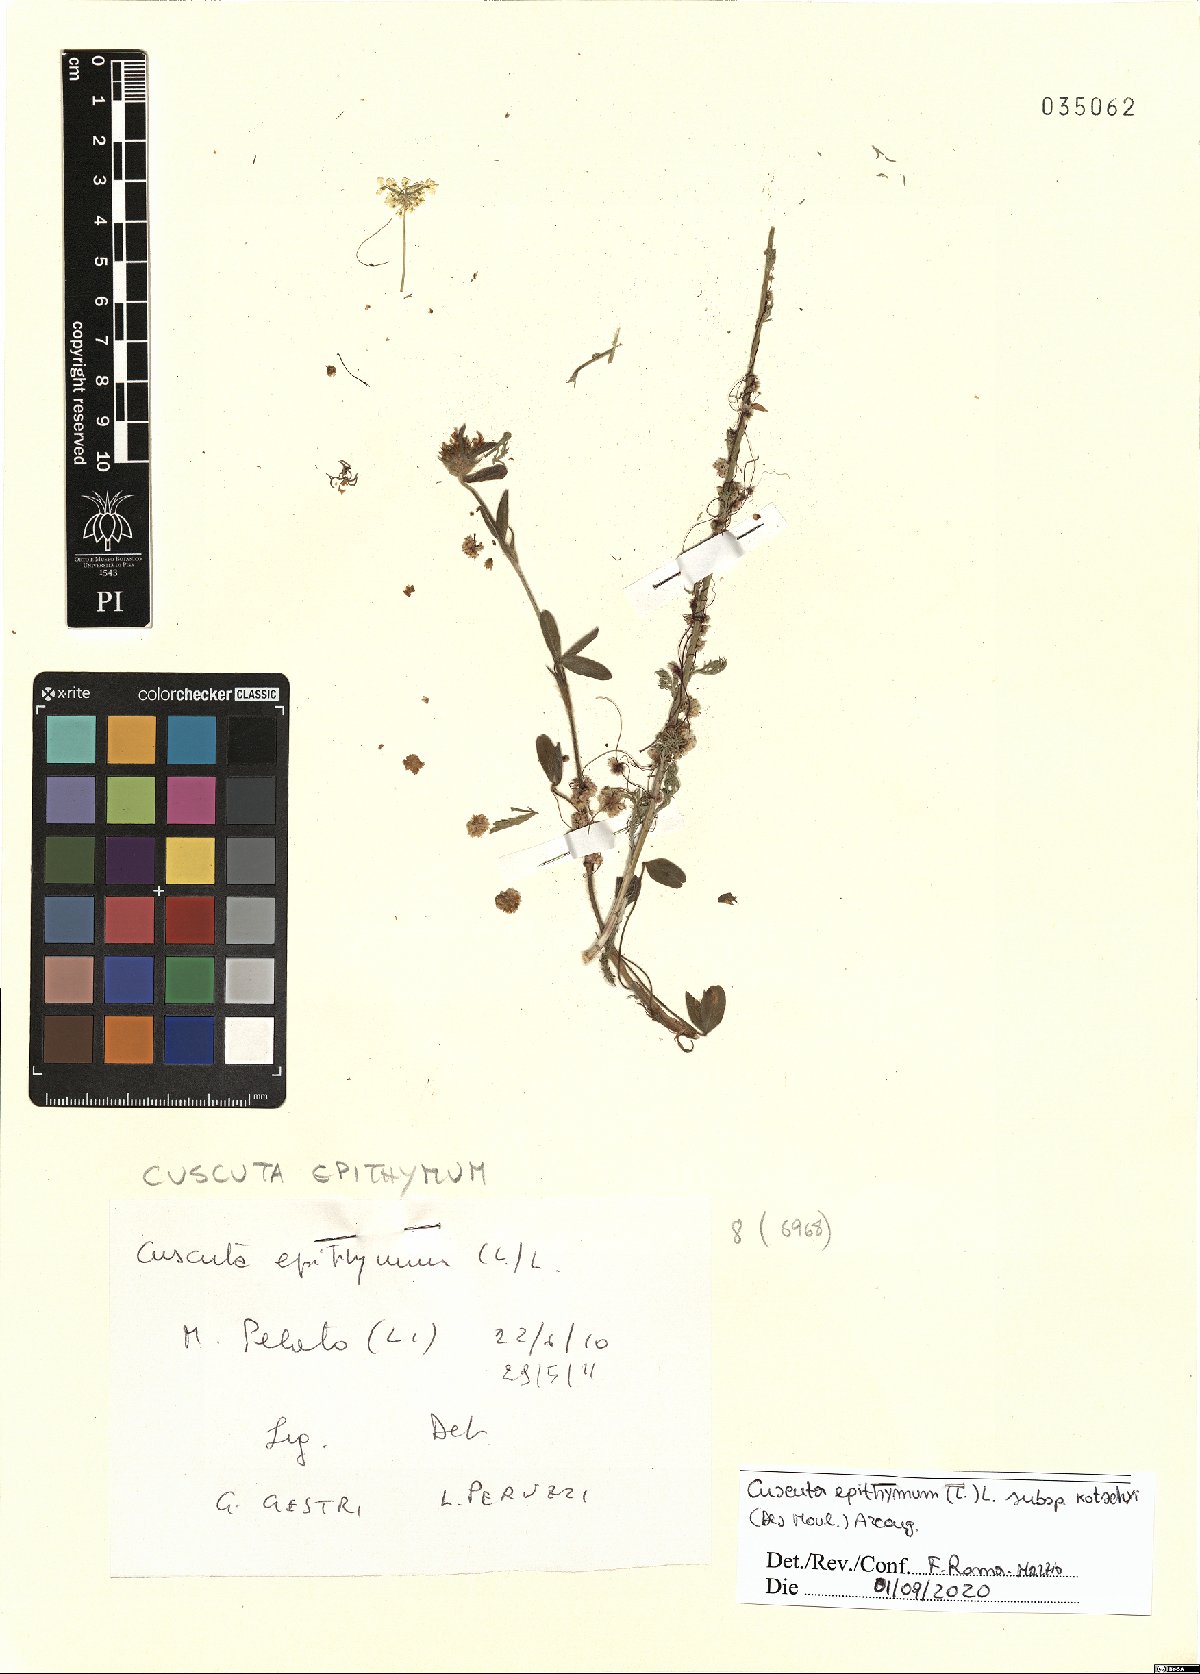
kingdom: Plantae
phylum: Tracheophyta
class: Magnoliopsida
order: Solanales
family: Convolvulaceae
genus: Cuscuta
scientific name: Cuscuta epithymum
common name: Clover dodder
